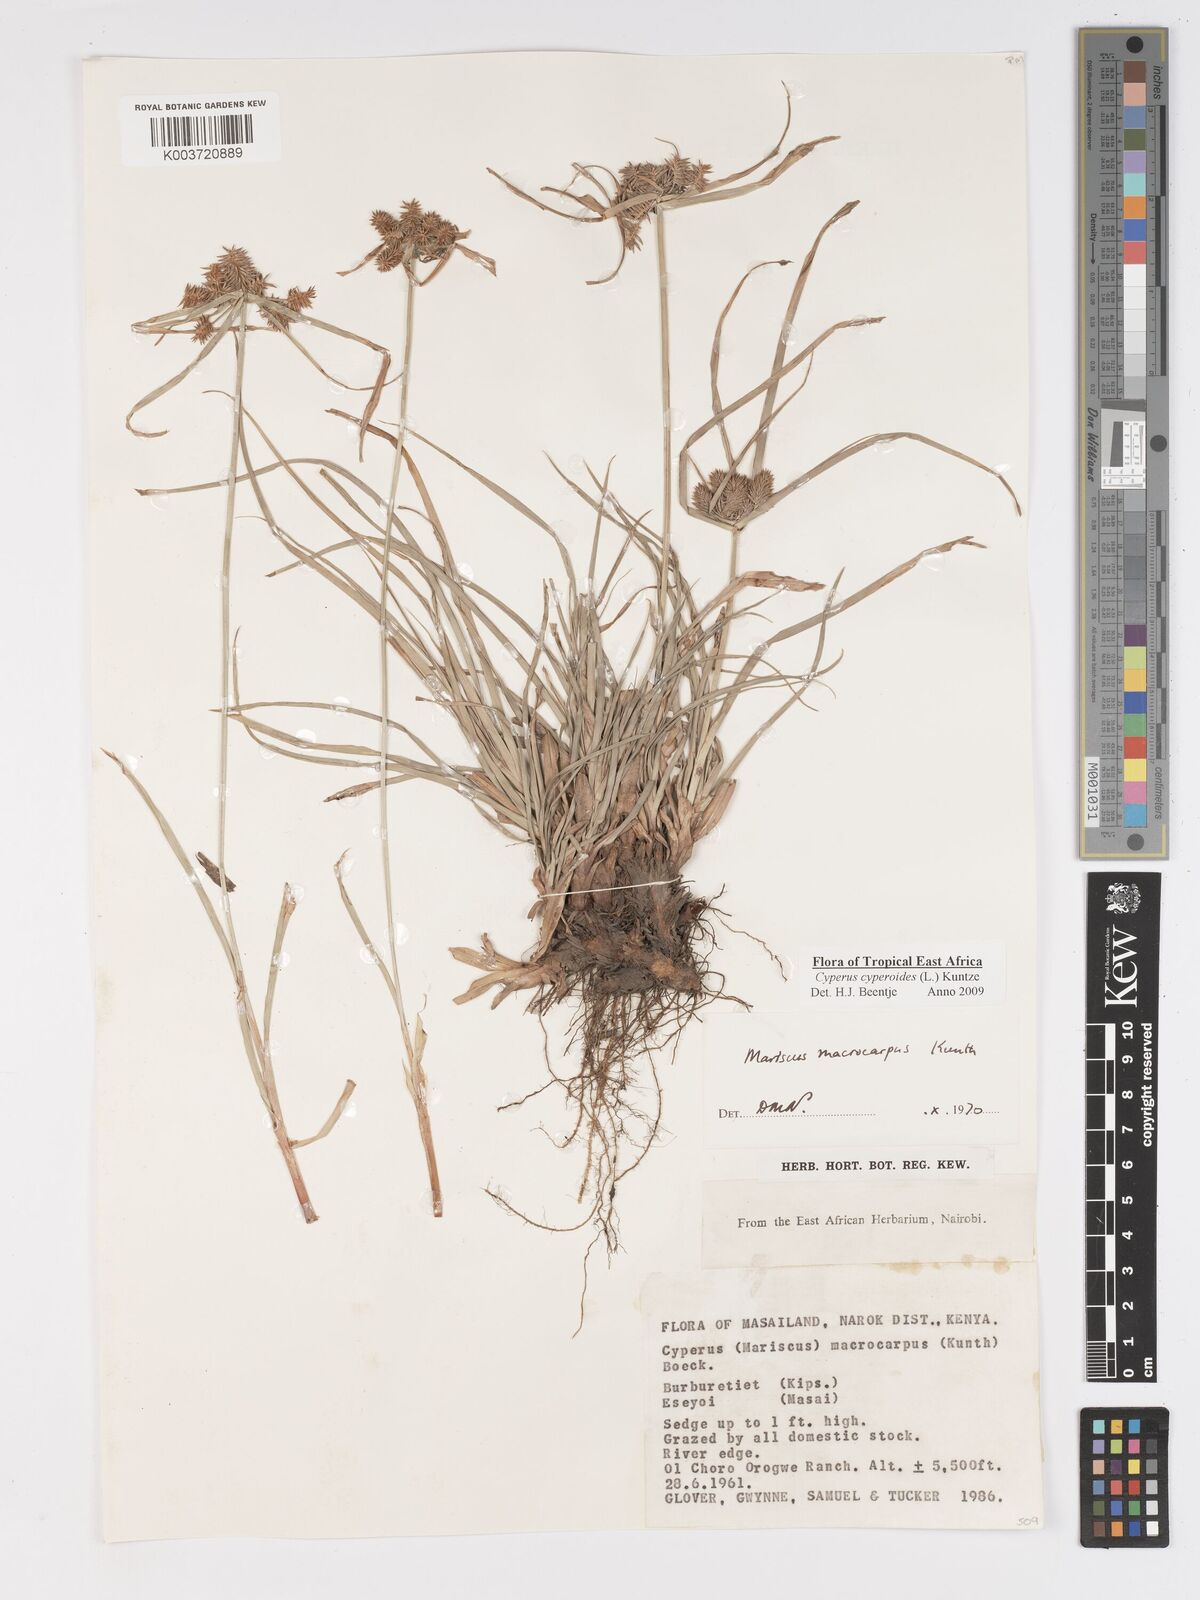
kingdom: Plantae
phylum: Tracheophyta
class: Liliopsida
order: Poales
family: Cyperaceae
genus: Cyperus
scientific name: Cyperus macrocarpus
